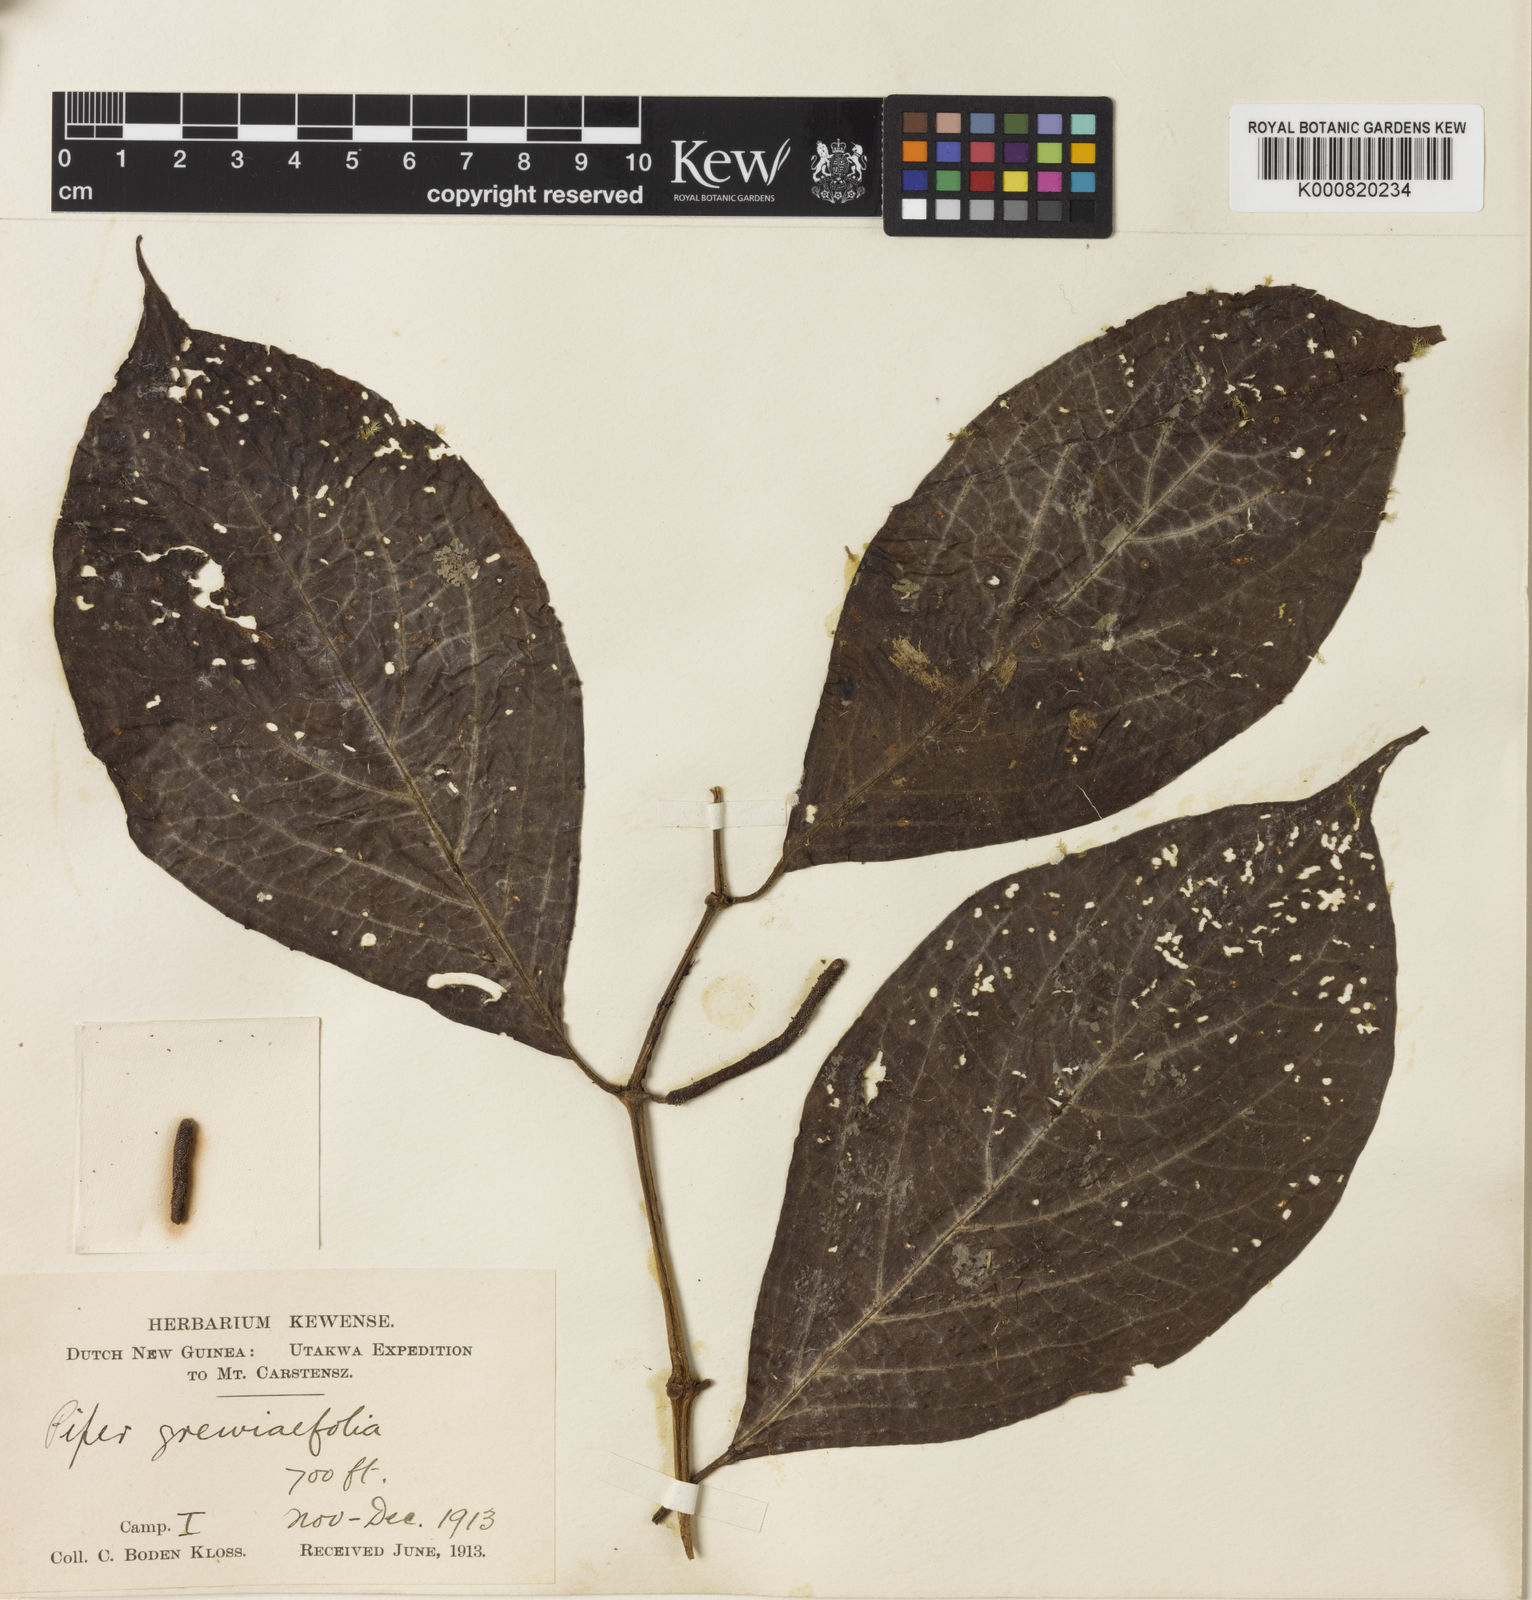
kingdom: Plantae
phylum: Tracheophyta
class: Magnoliopsida
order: Piperales
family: Piperaceae
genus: Piper
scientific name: Piper
